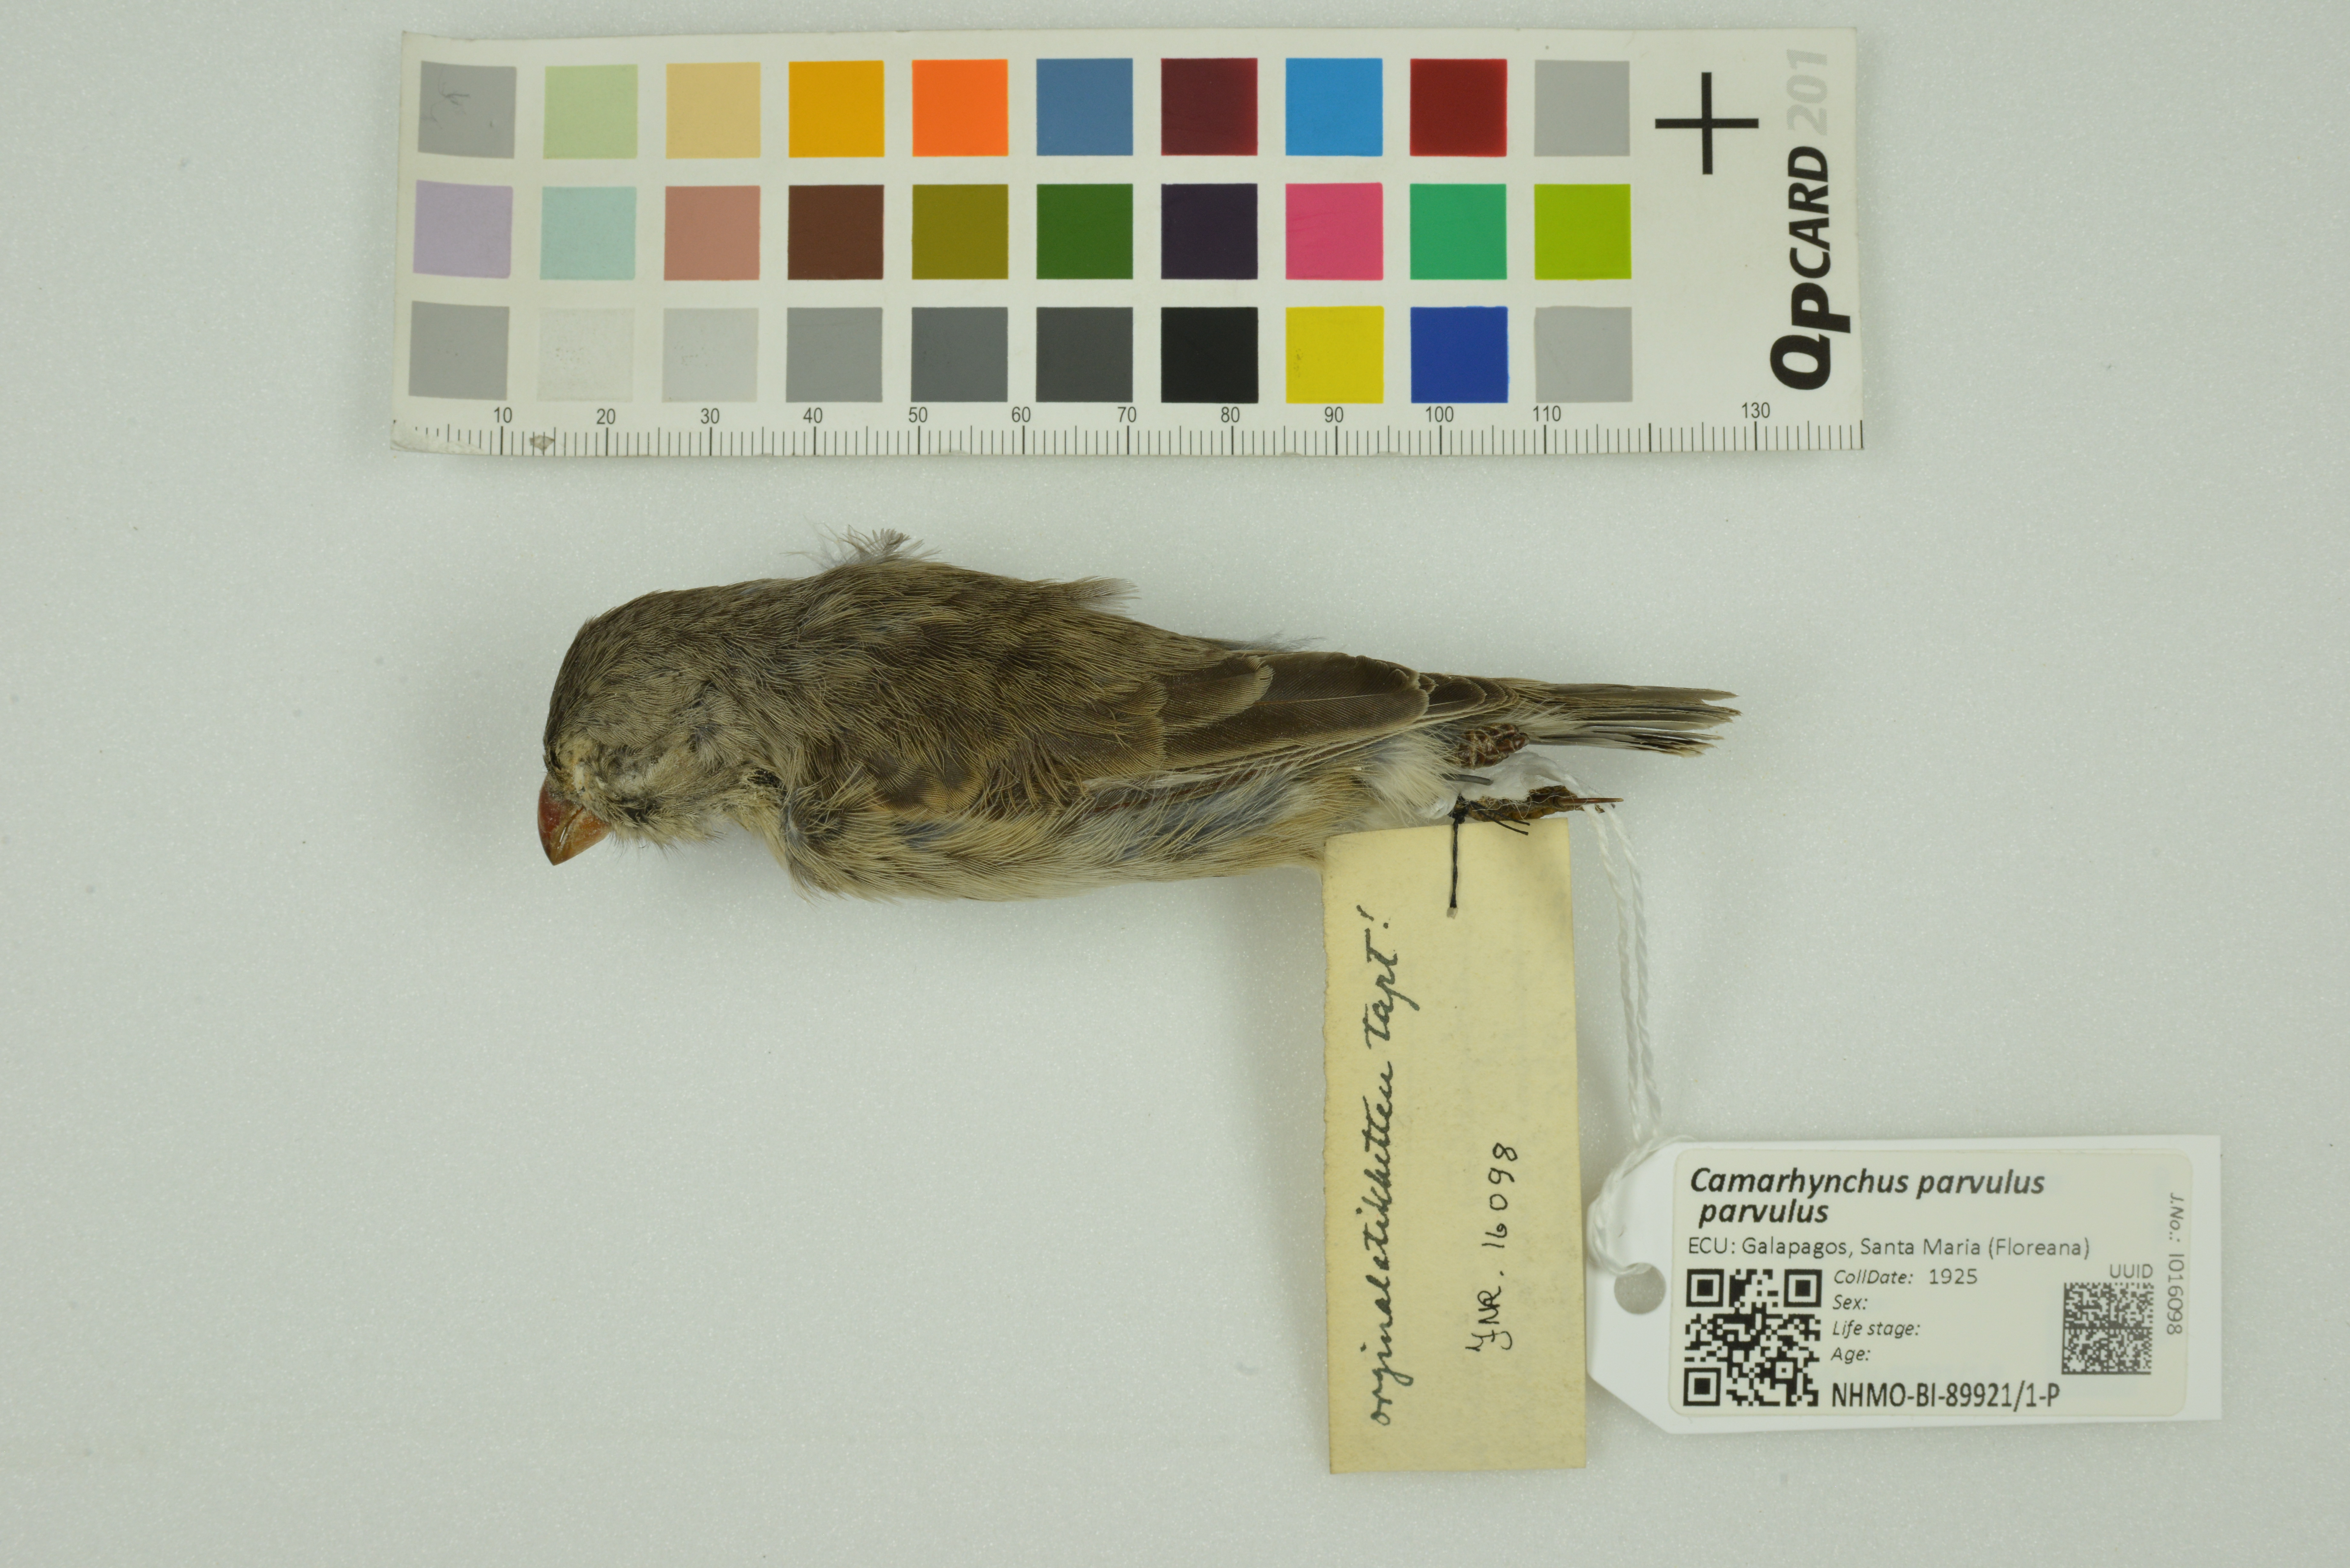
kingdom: Animalia
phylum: Chordata
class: Aves
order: Passeriformes
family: Thraupidae
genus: Camarhynchus
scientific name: Camarhynchus parvulus
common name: Small tree finch
